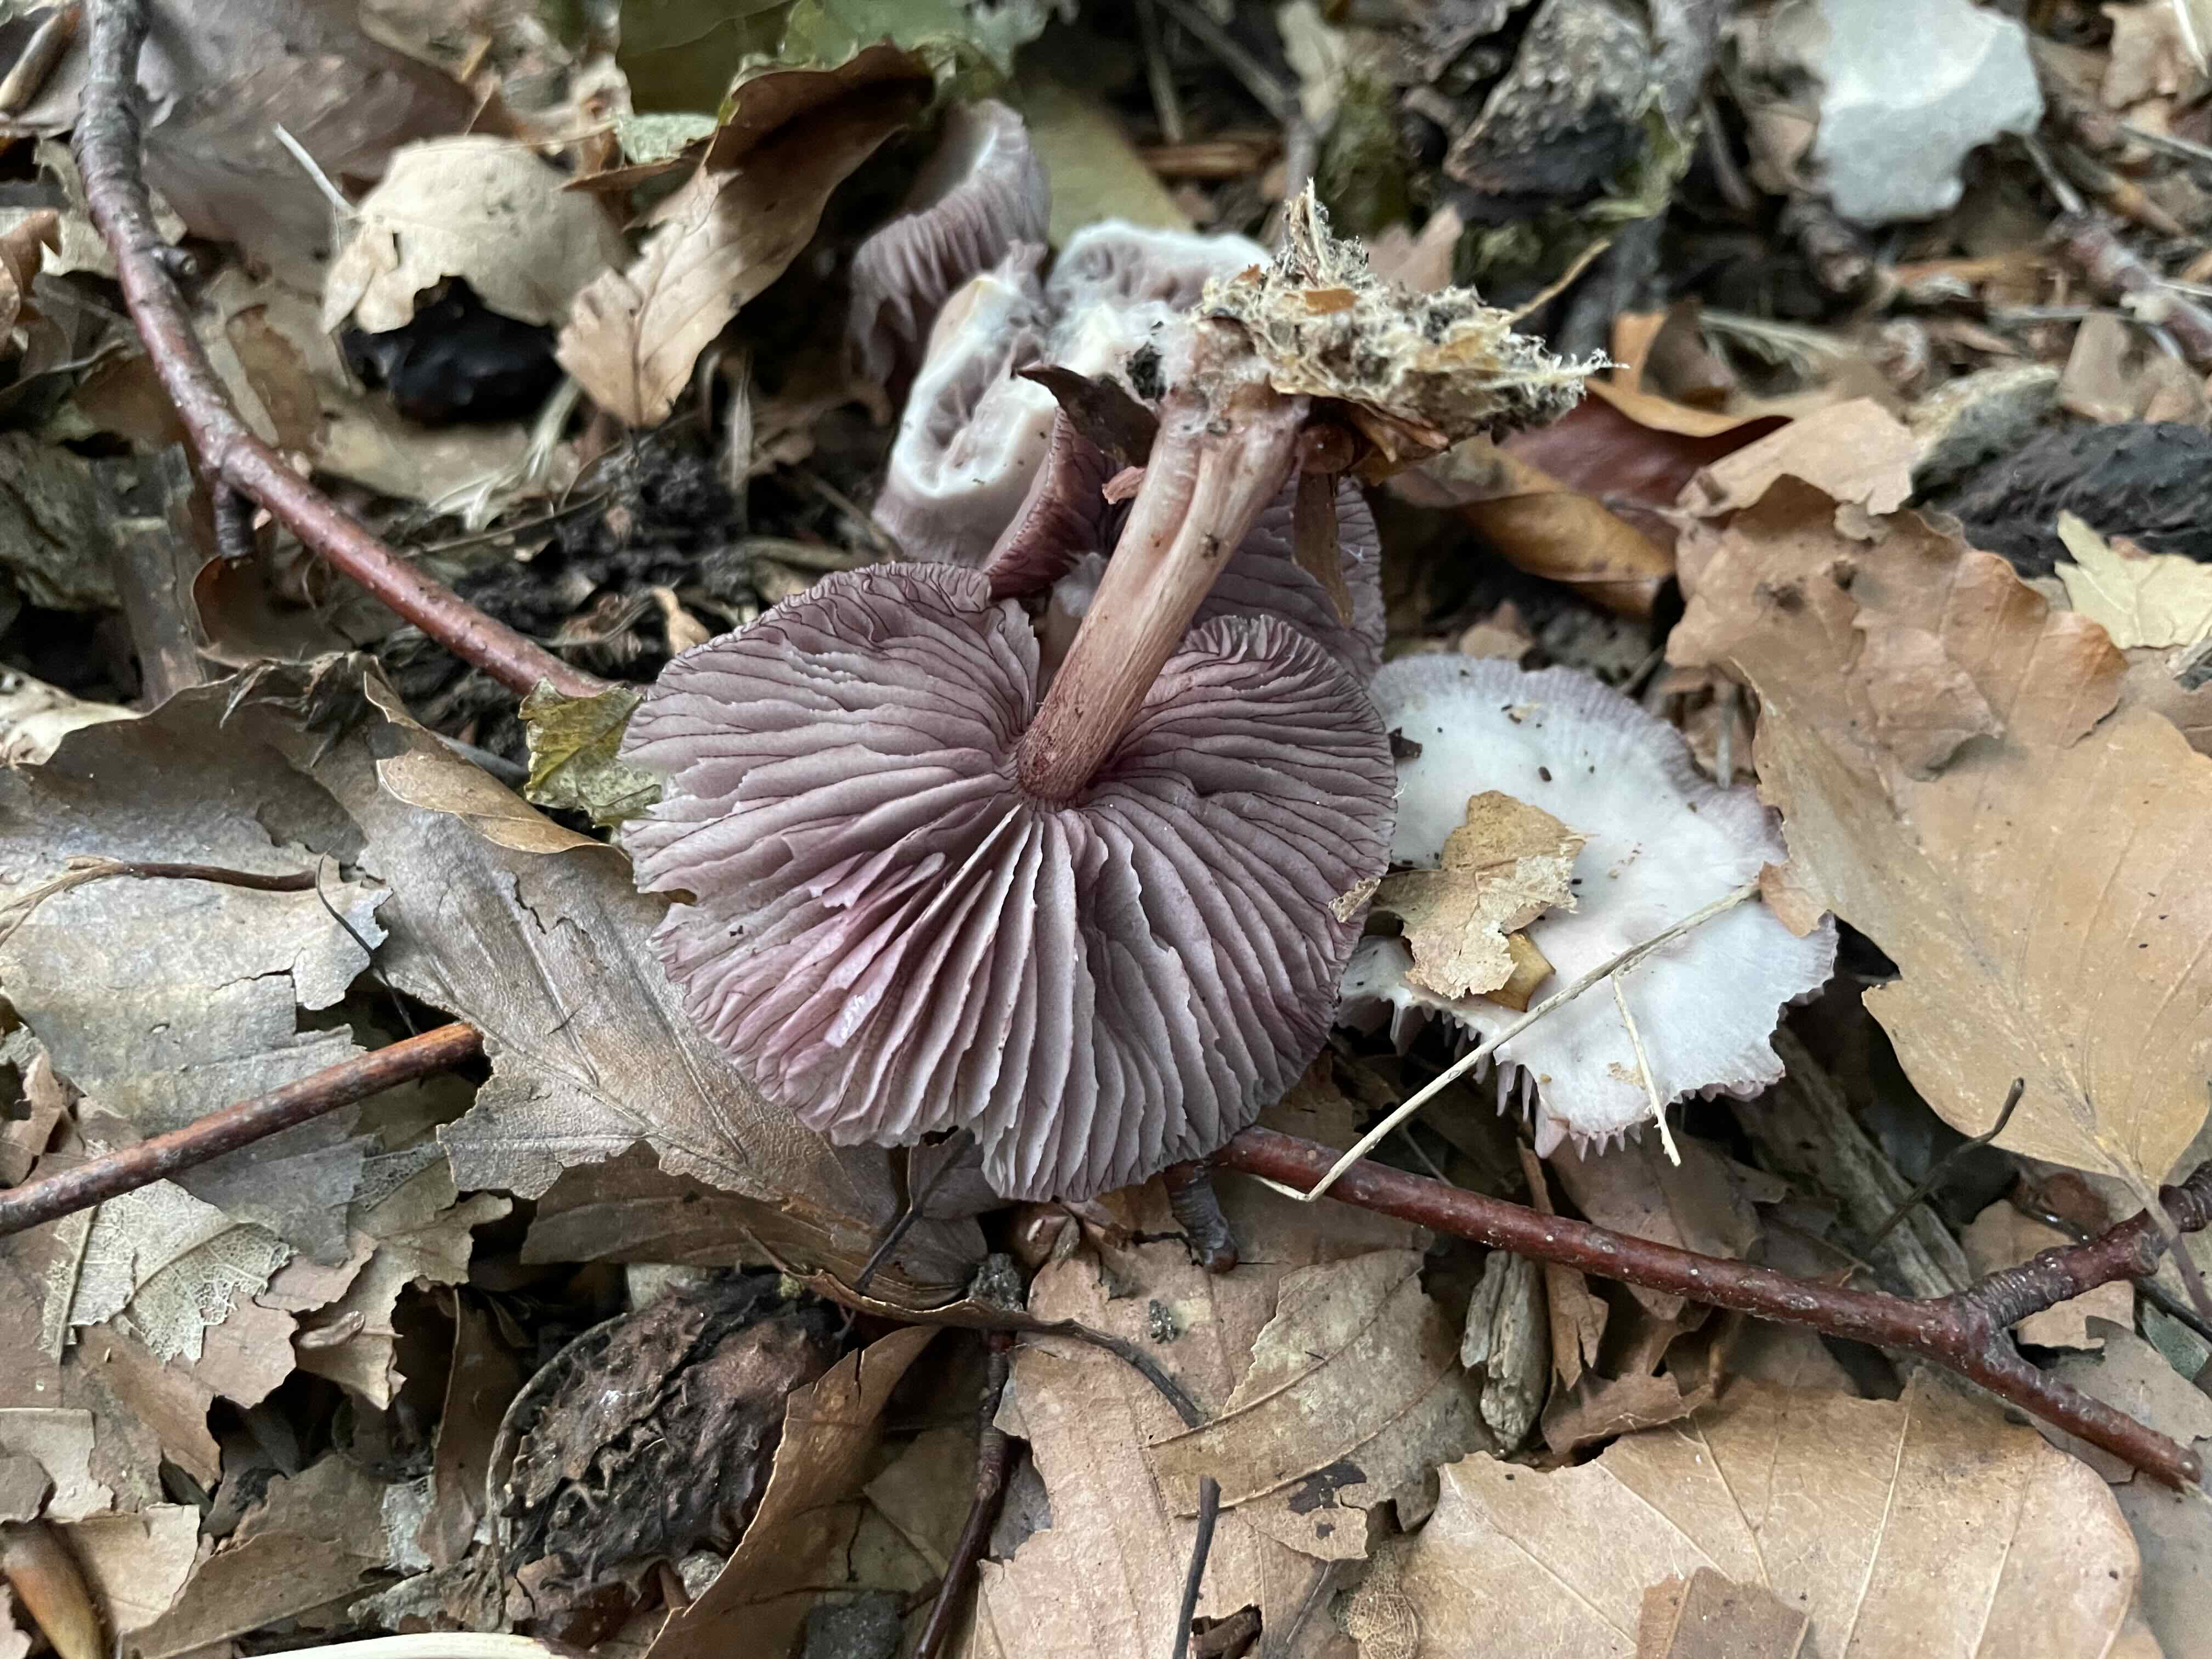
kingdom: Fungi
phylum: Basidiomycota
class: Agaricomycetes
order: Agaricales
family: Mycenaceae
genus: Mycena
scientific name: Mycena pelianthina
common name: mørkbladet huesvamp
